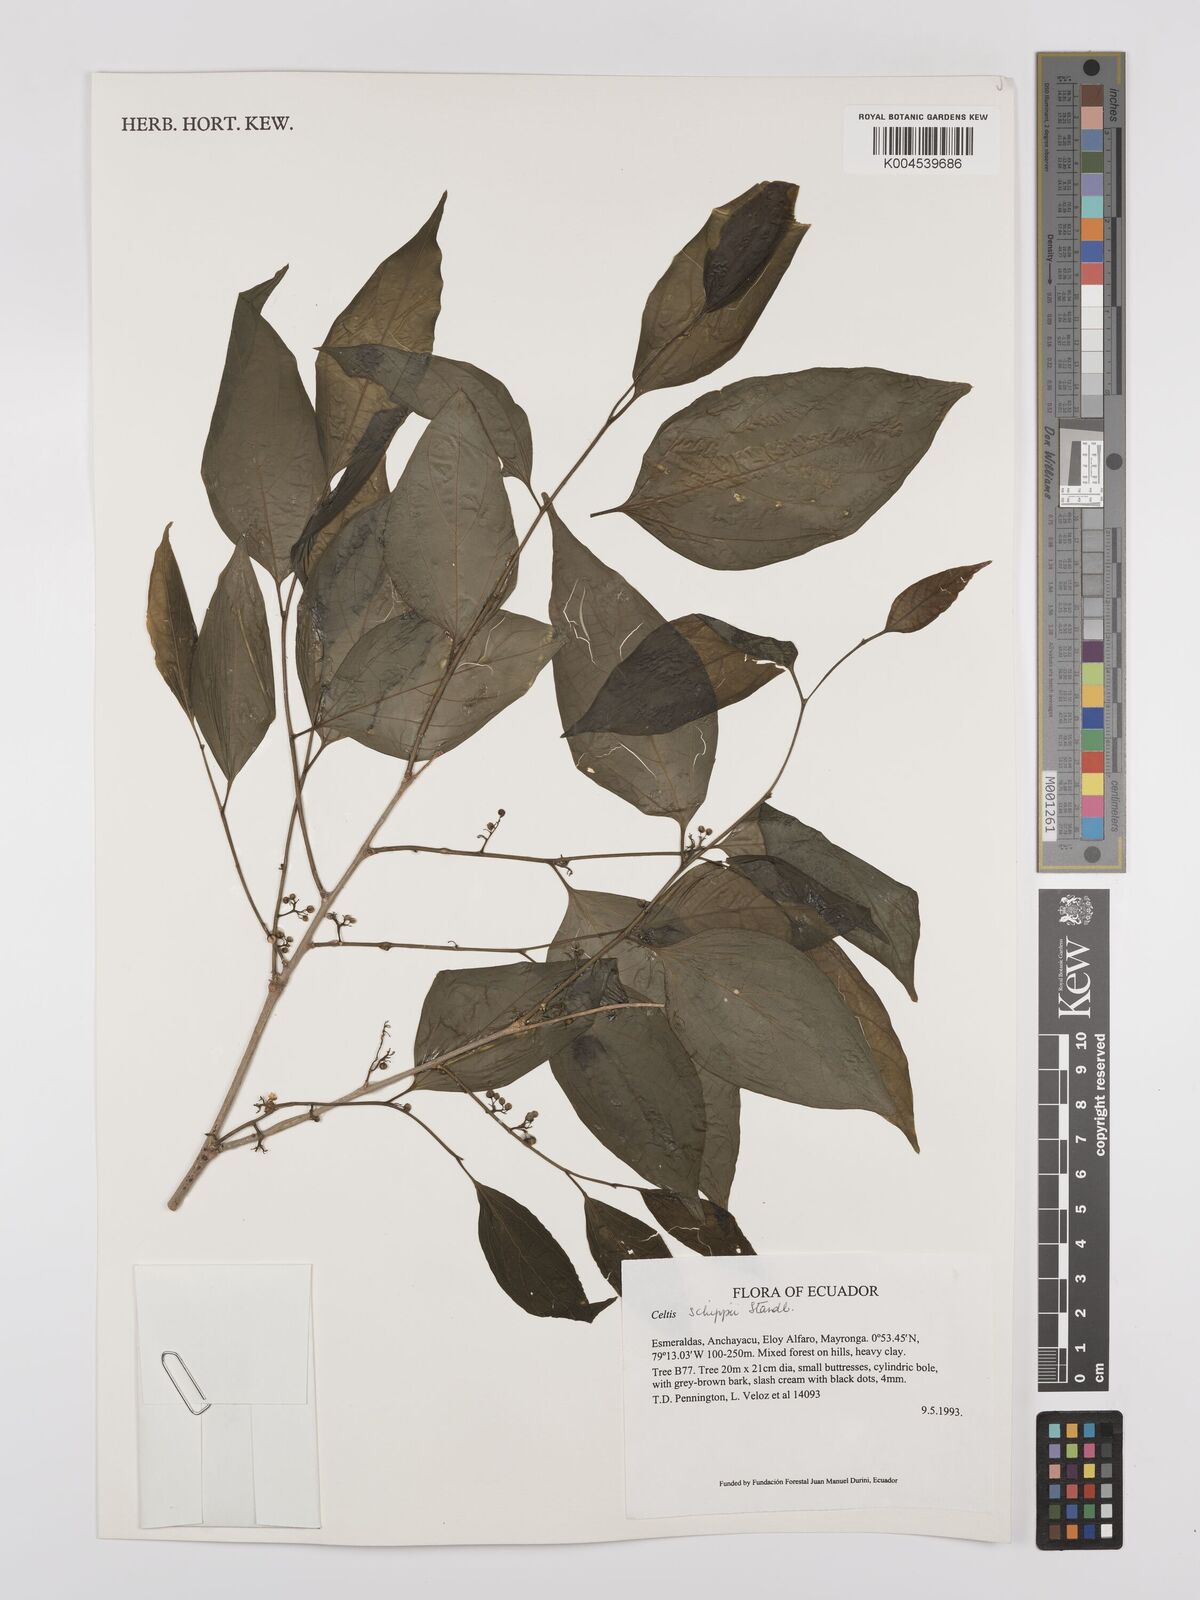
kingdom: Plantae
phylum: Tracheophyta
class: Magnoliopsida
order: Rosales
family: Cannabaceae
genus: Celtis
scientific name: Celtis schippii
